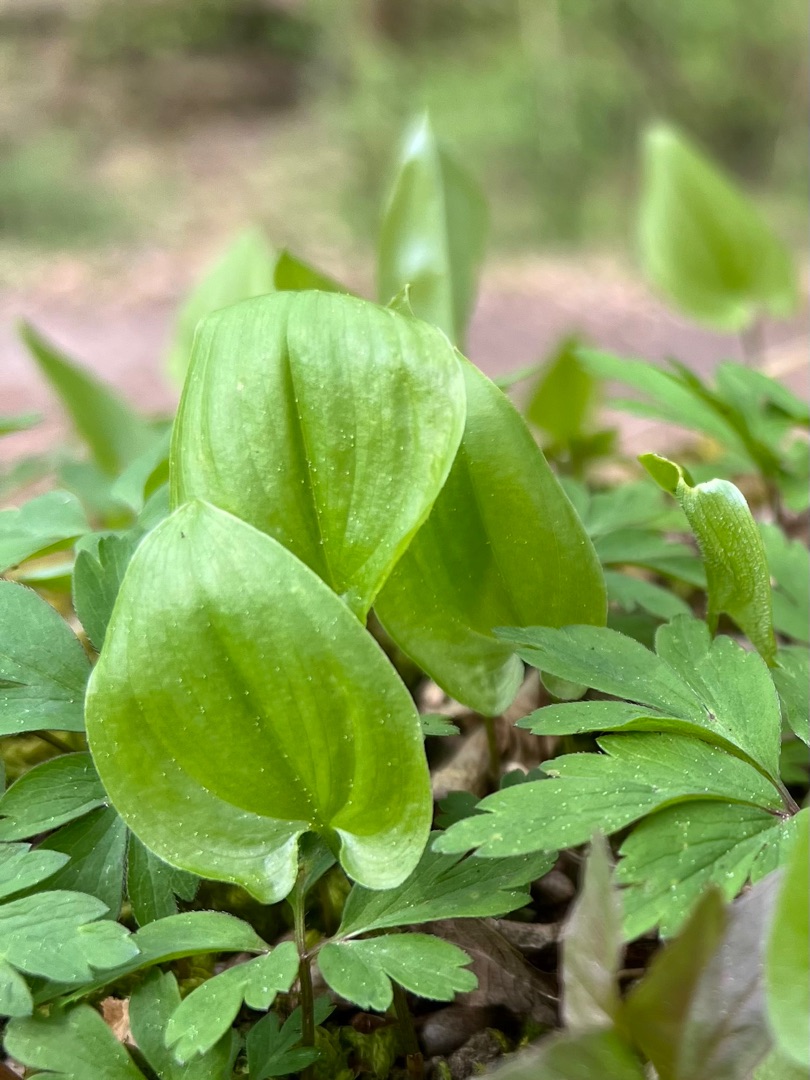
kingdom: Plantae
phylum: Tracheophyta
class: Liliopsida
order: Asparagales
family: Asparagaceae
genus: Maianthemum
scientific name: Maianthemum bifolium
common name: Majblomst
